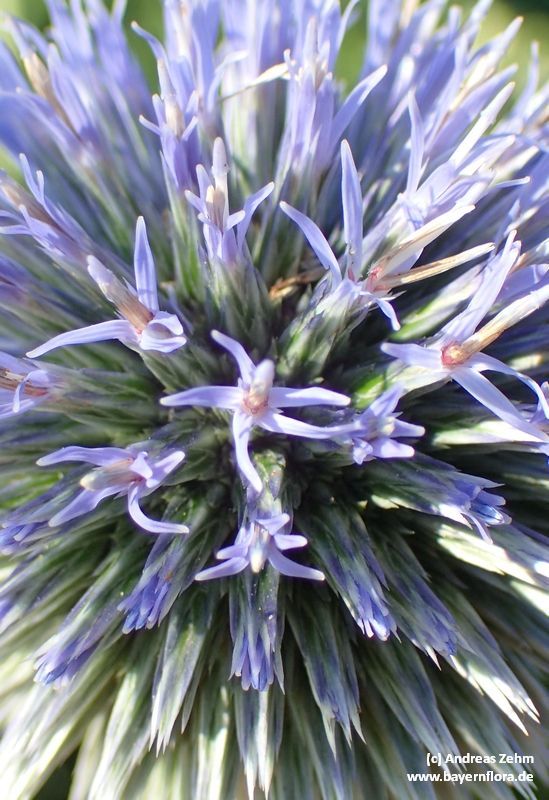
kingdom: Plantae
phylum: Tracheophyta
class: Magnoliopsida
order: Asterales
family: Asteraceae
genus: Echinops
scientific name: Echinops bannaticus
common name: Blue globe-thistle
